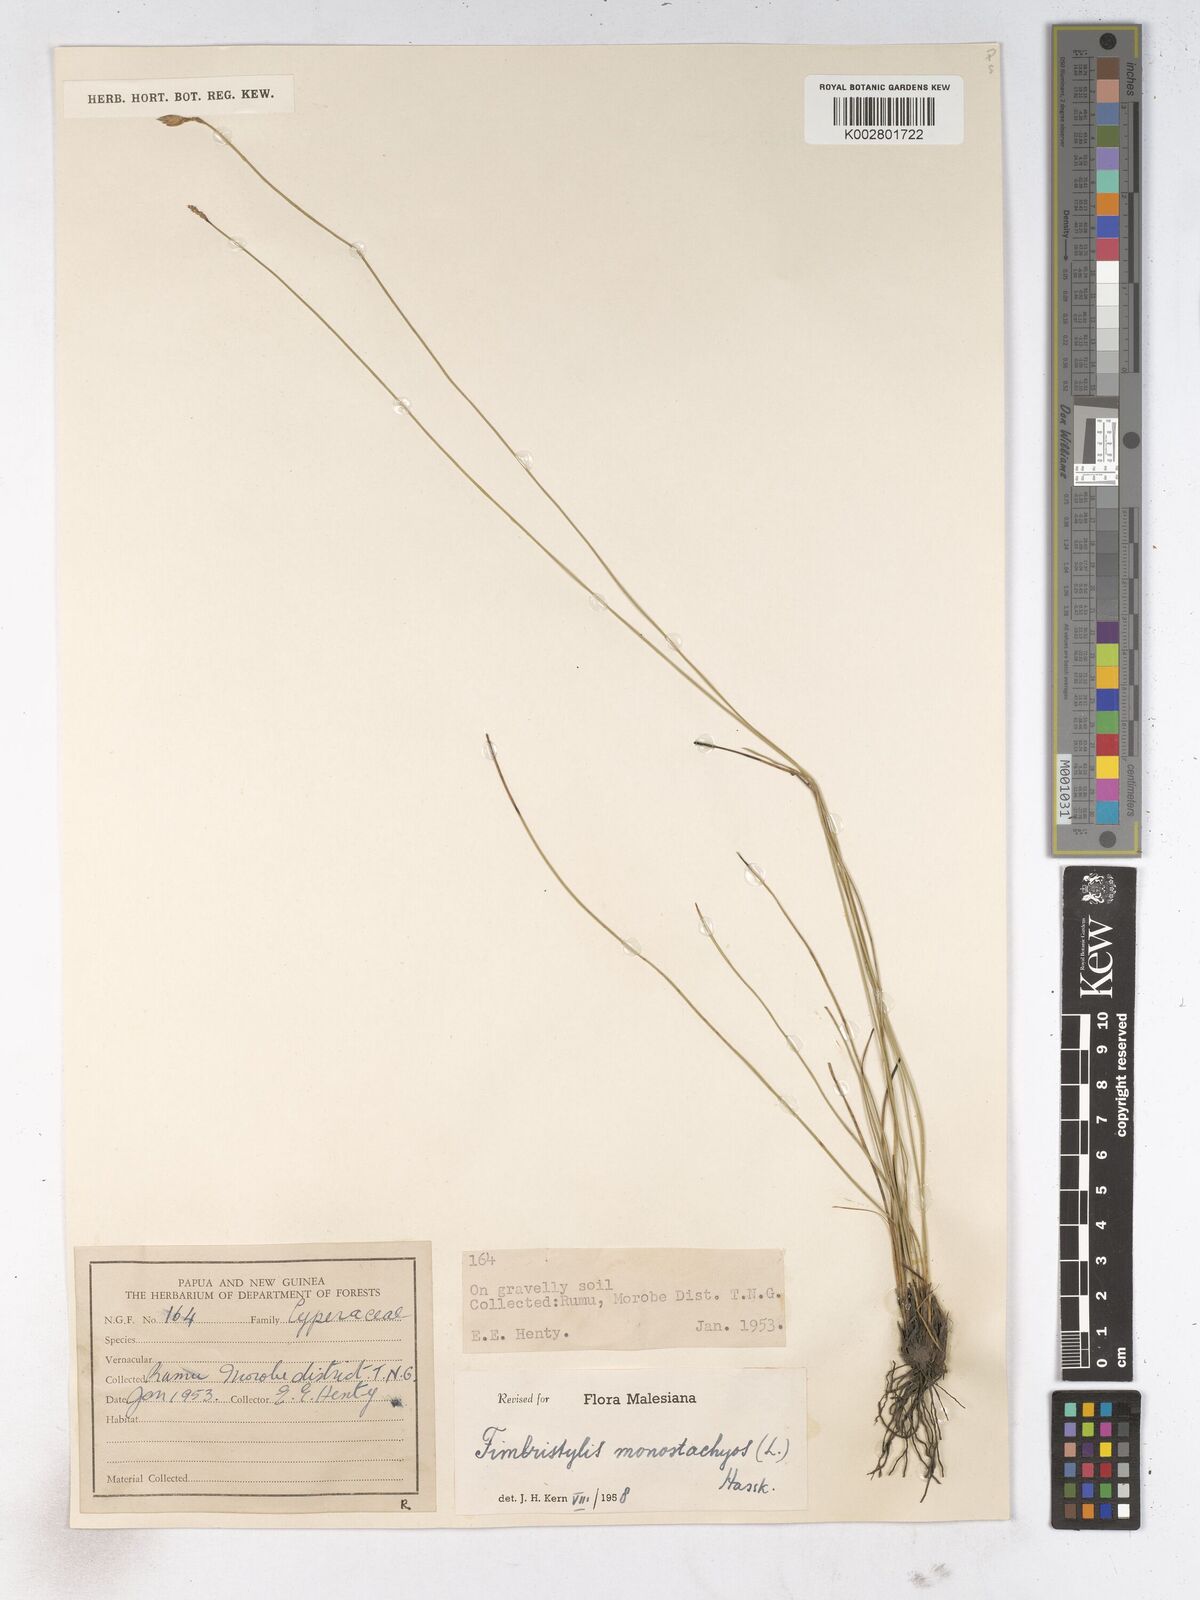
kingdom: Plantae
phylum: Tracheophyta
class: Liliopsida
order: Poales
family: Cyperaceae
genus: Abildgaardia
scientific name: Abildgaardia ovata
